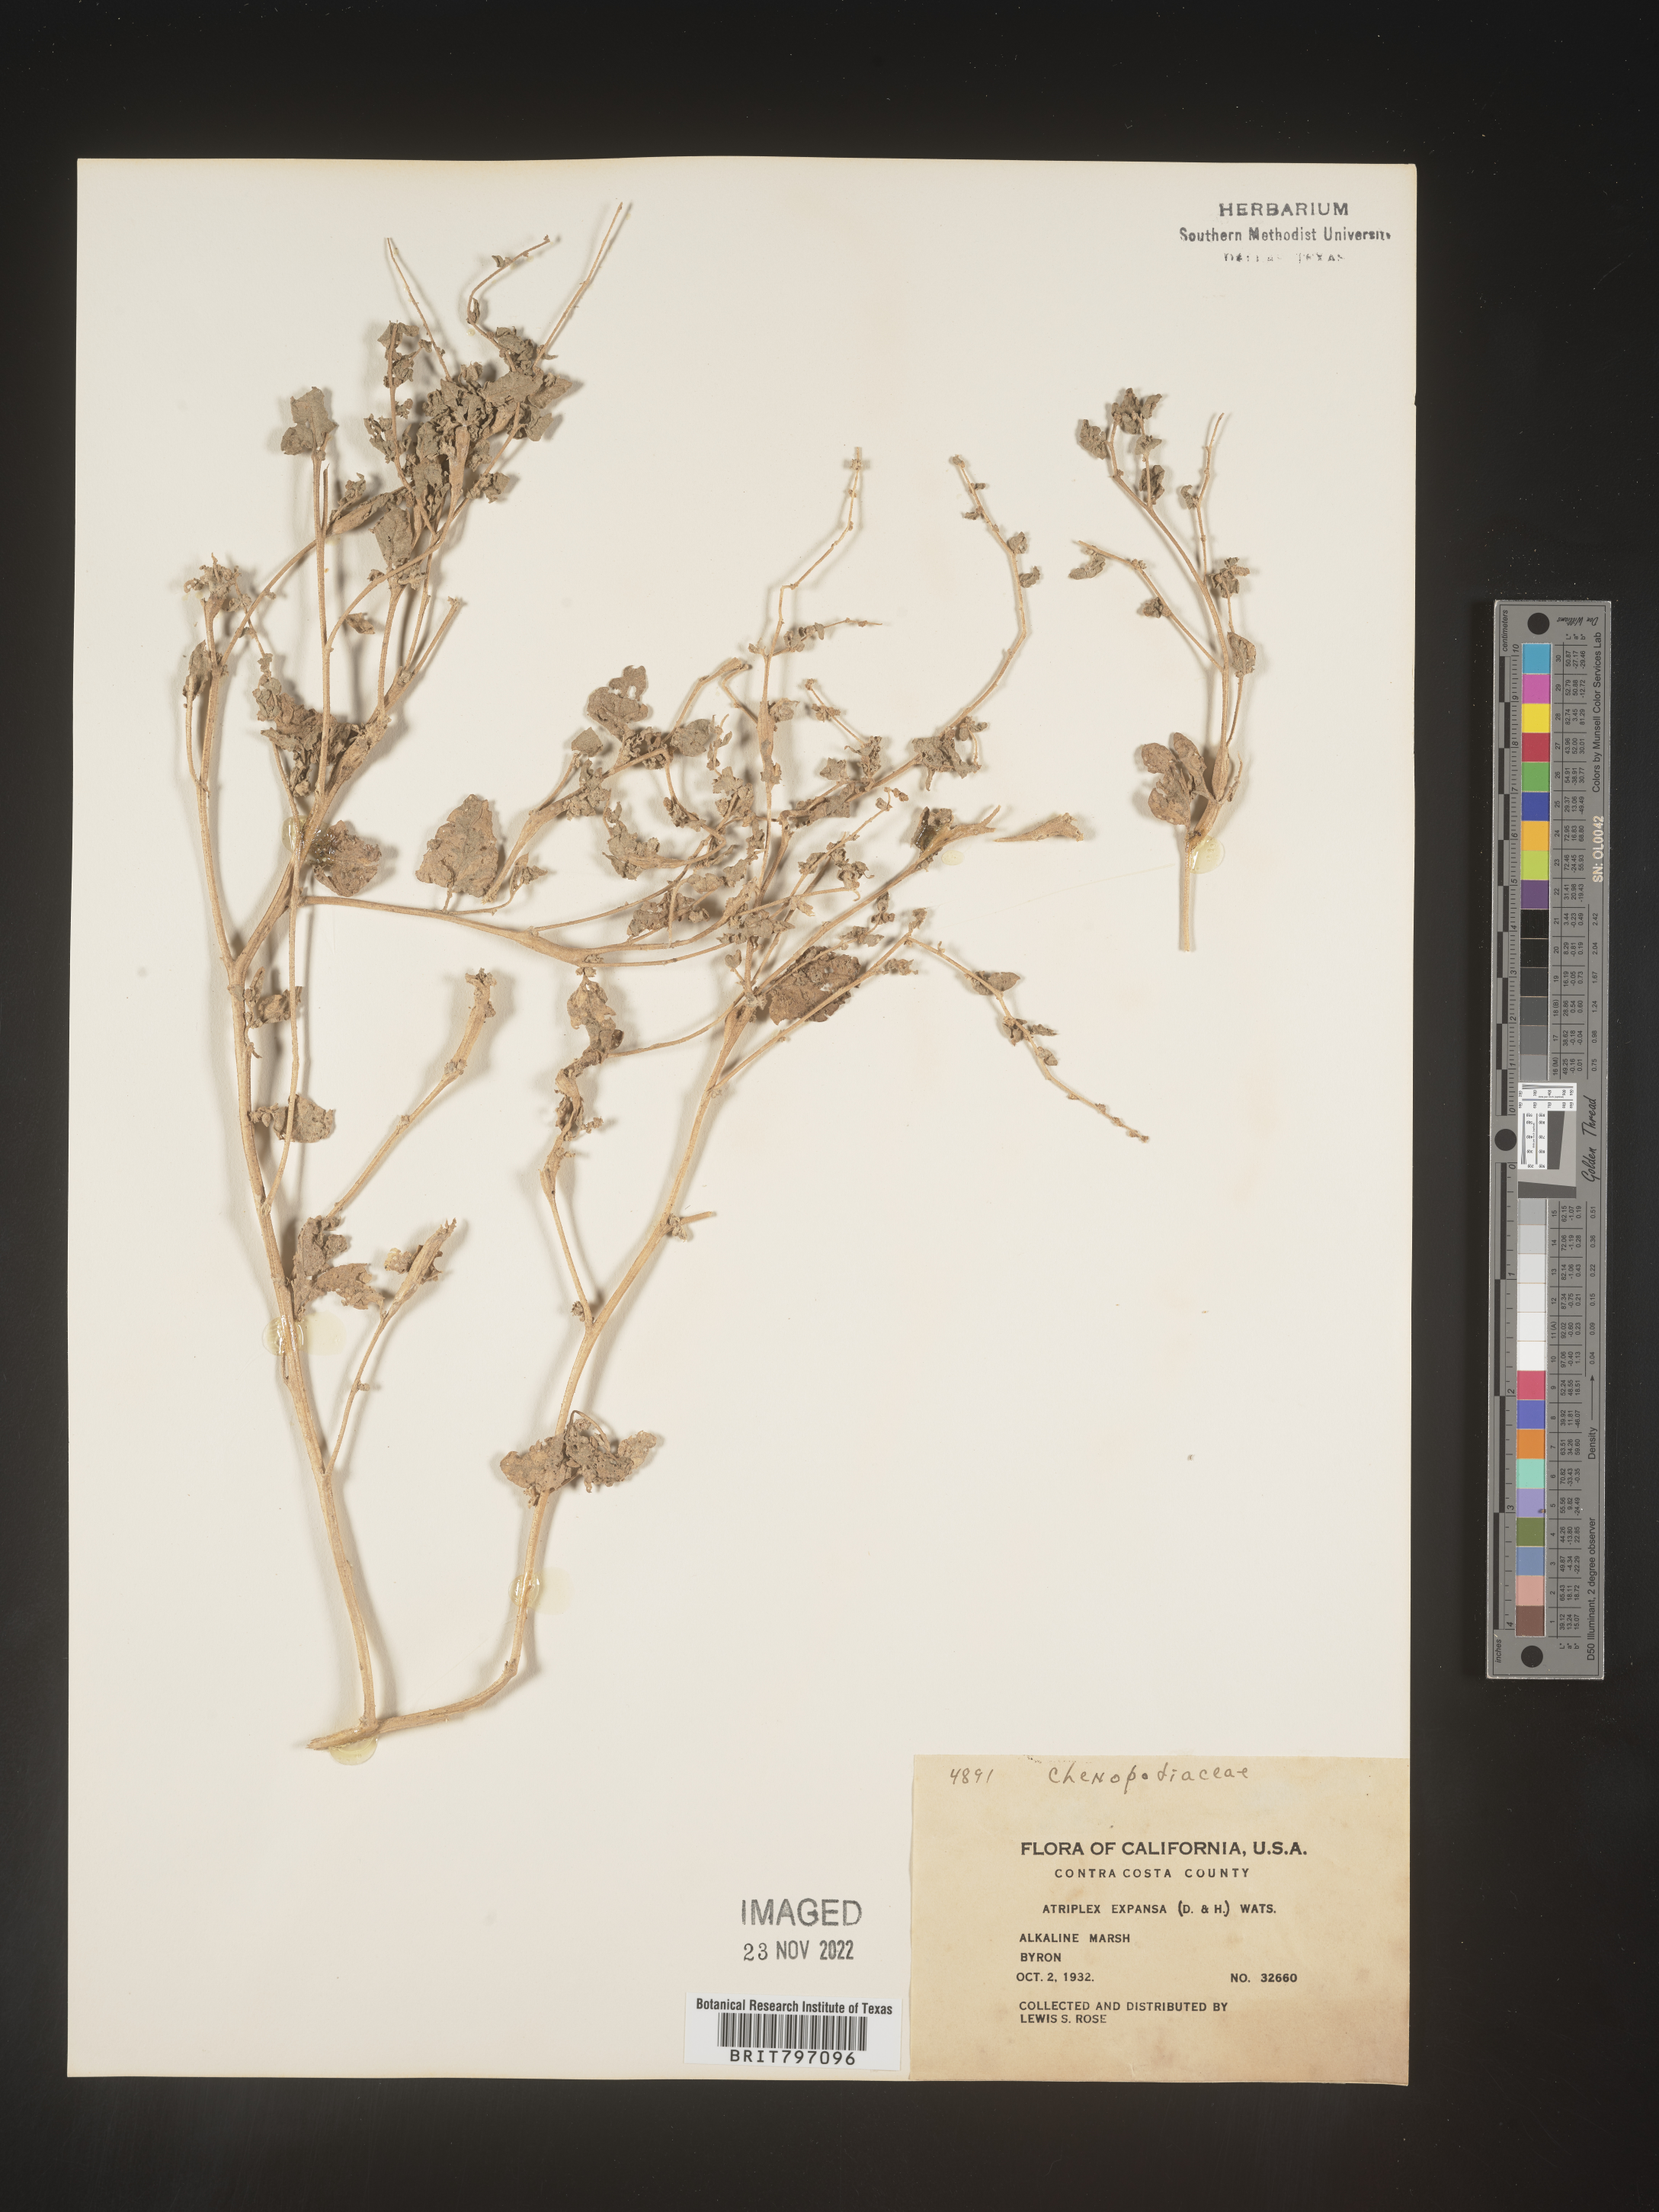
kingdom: Plantae
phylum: Tracheophyta
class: Magnoliopsida
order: Caryophyllales
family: Amaranthaceae
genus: Atriplex
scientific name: Atriplex
